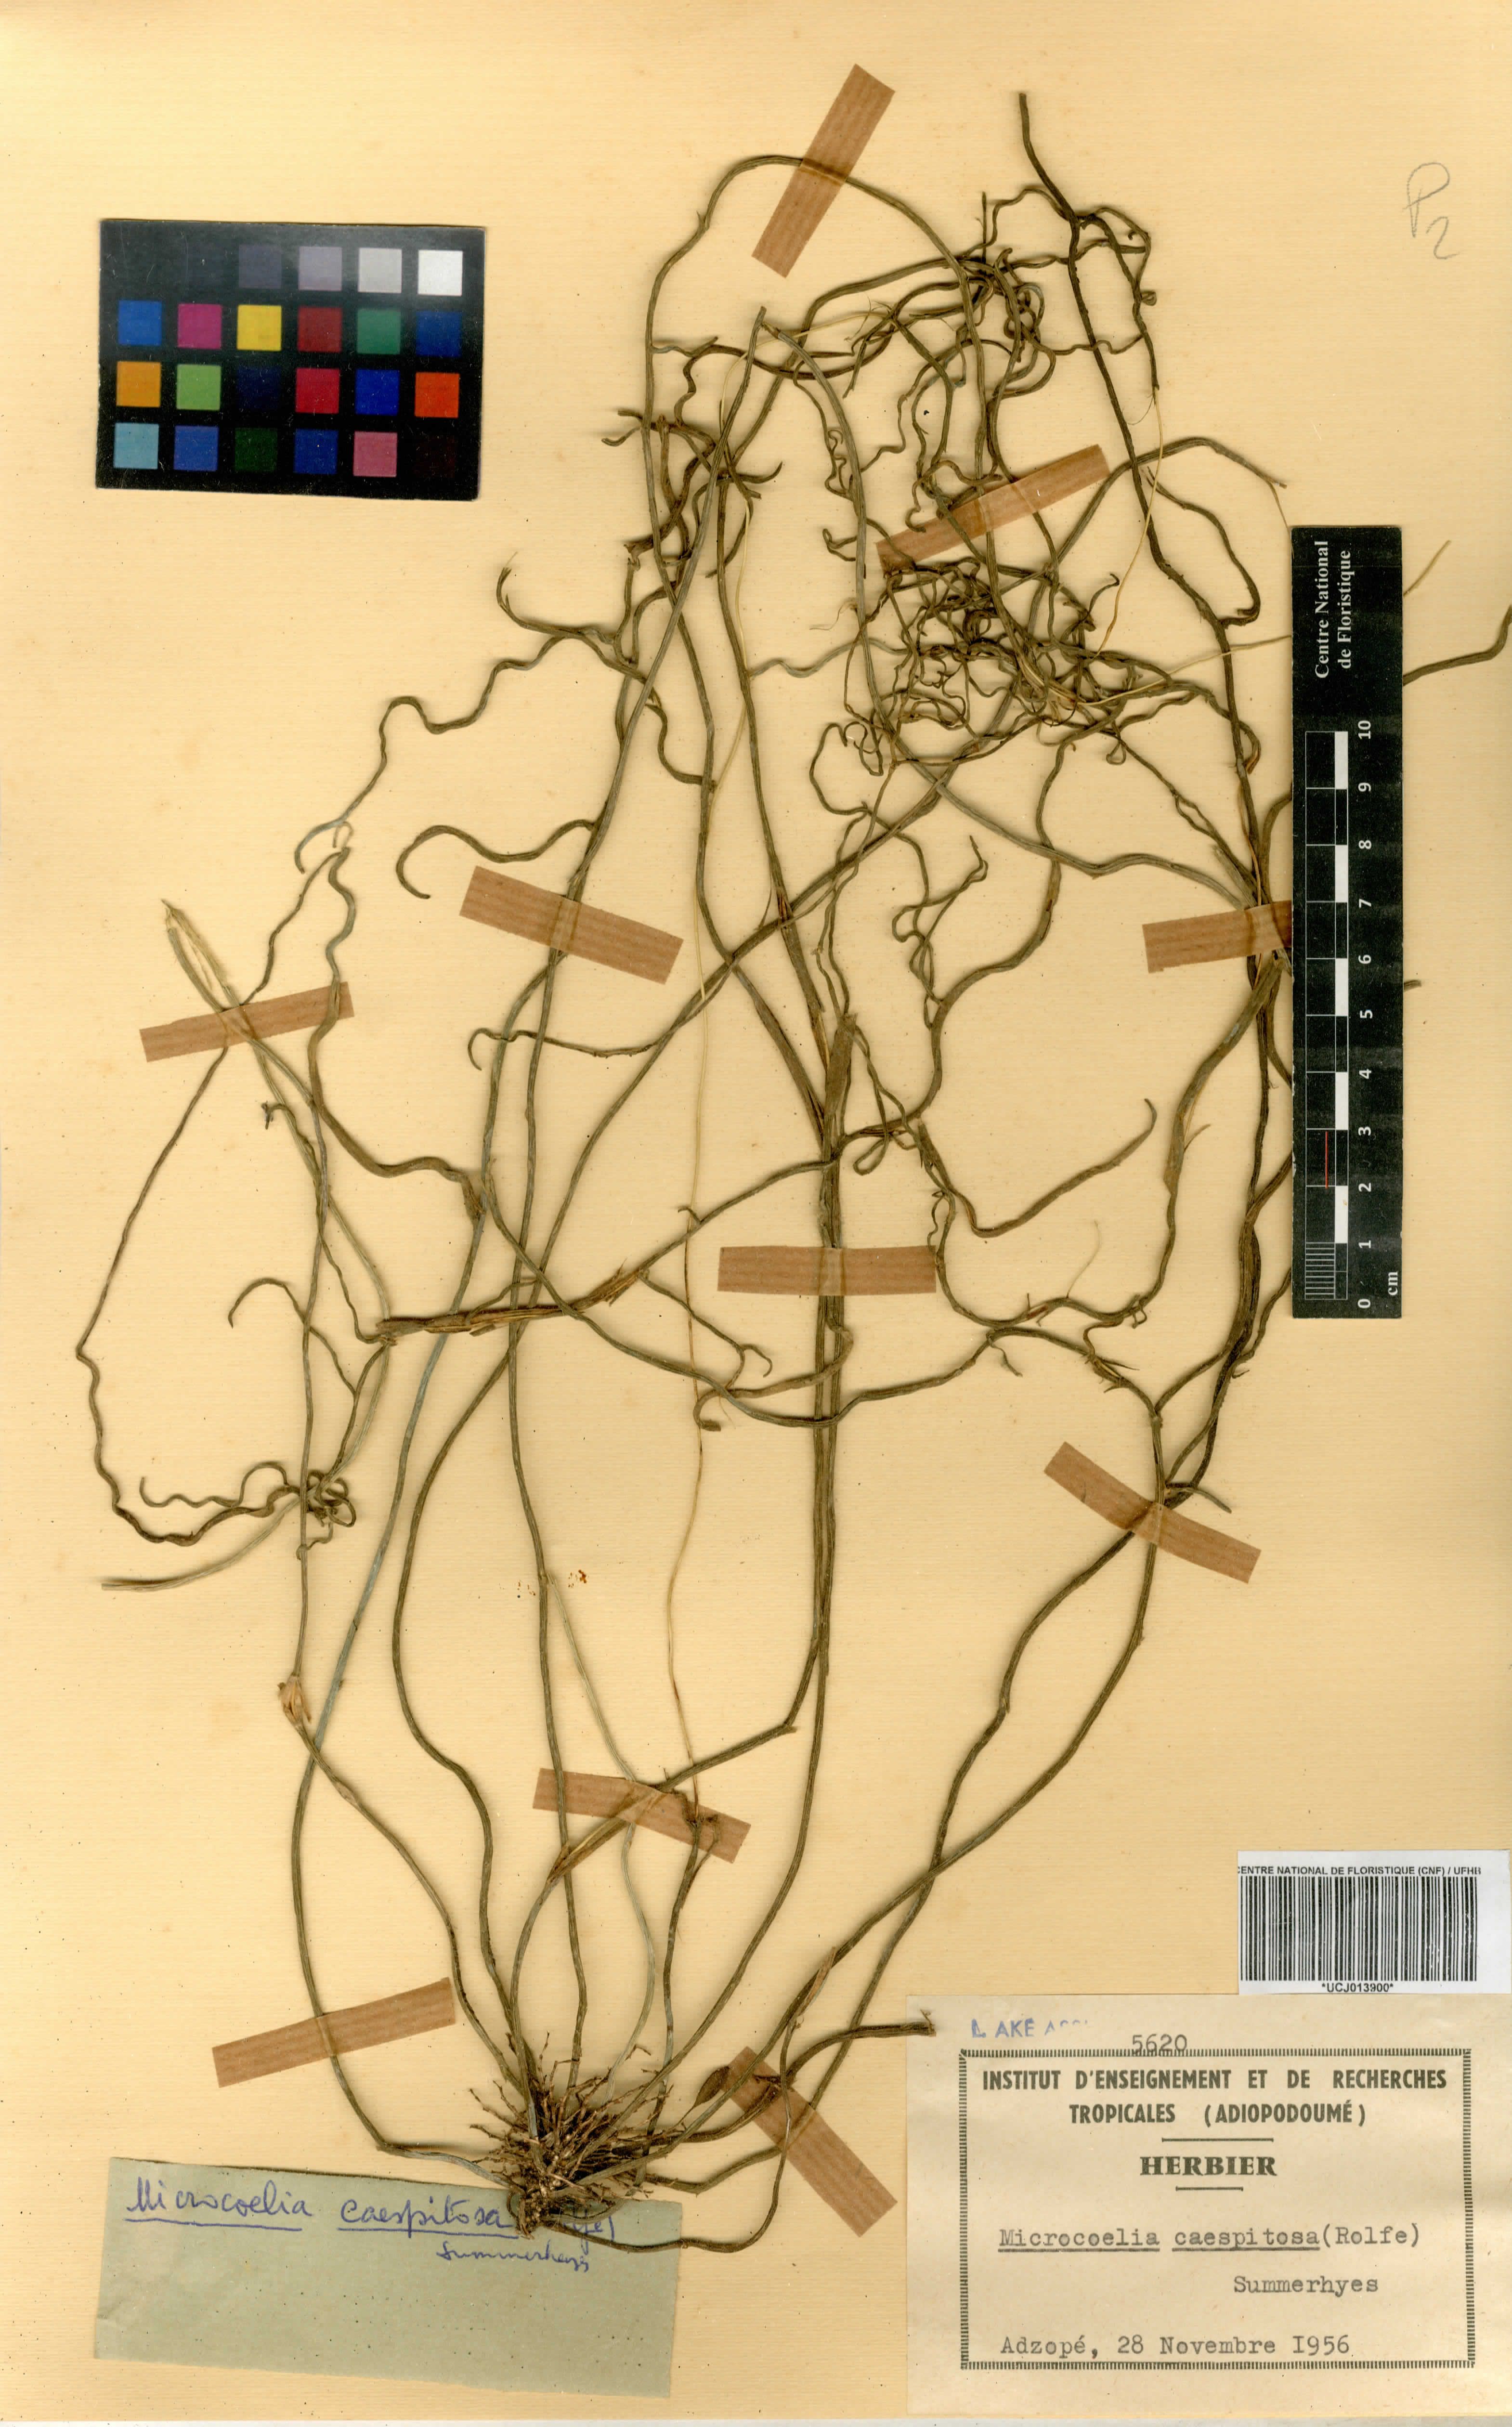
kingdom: Plantae
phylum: Tracheophyta
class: Liliopsida
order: Asparagales
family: Orchidaceae
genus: Microcoelia
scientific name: Microcoelia caespitosa
